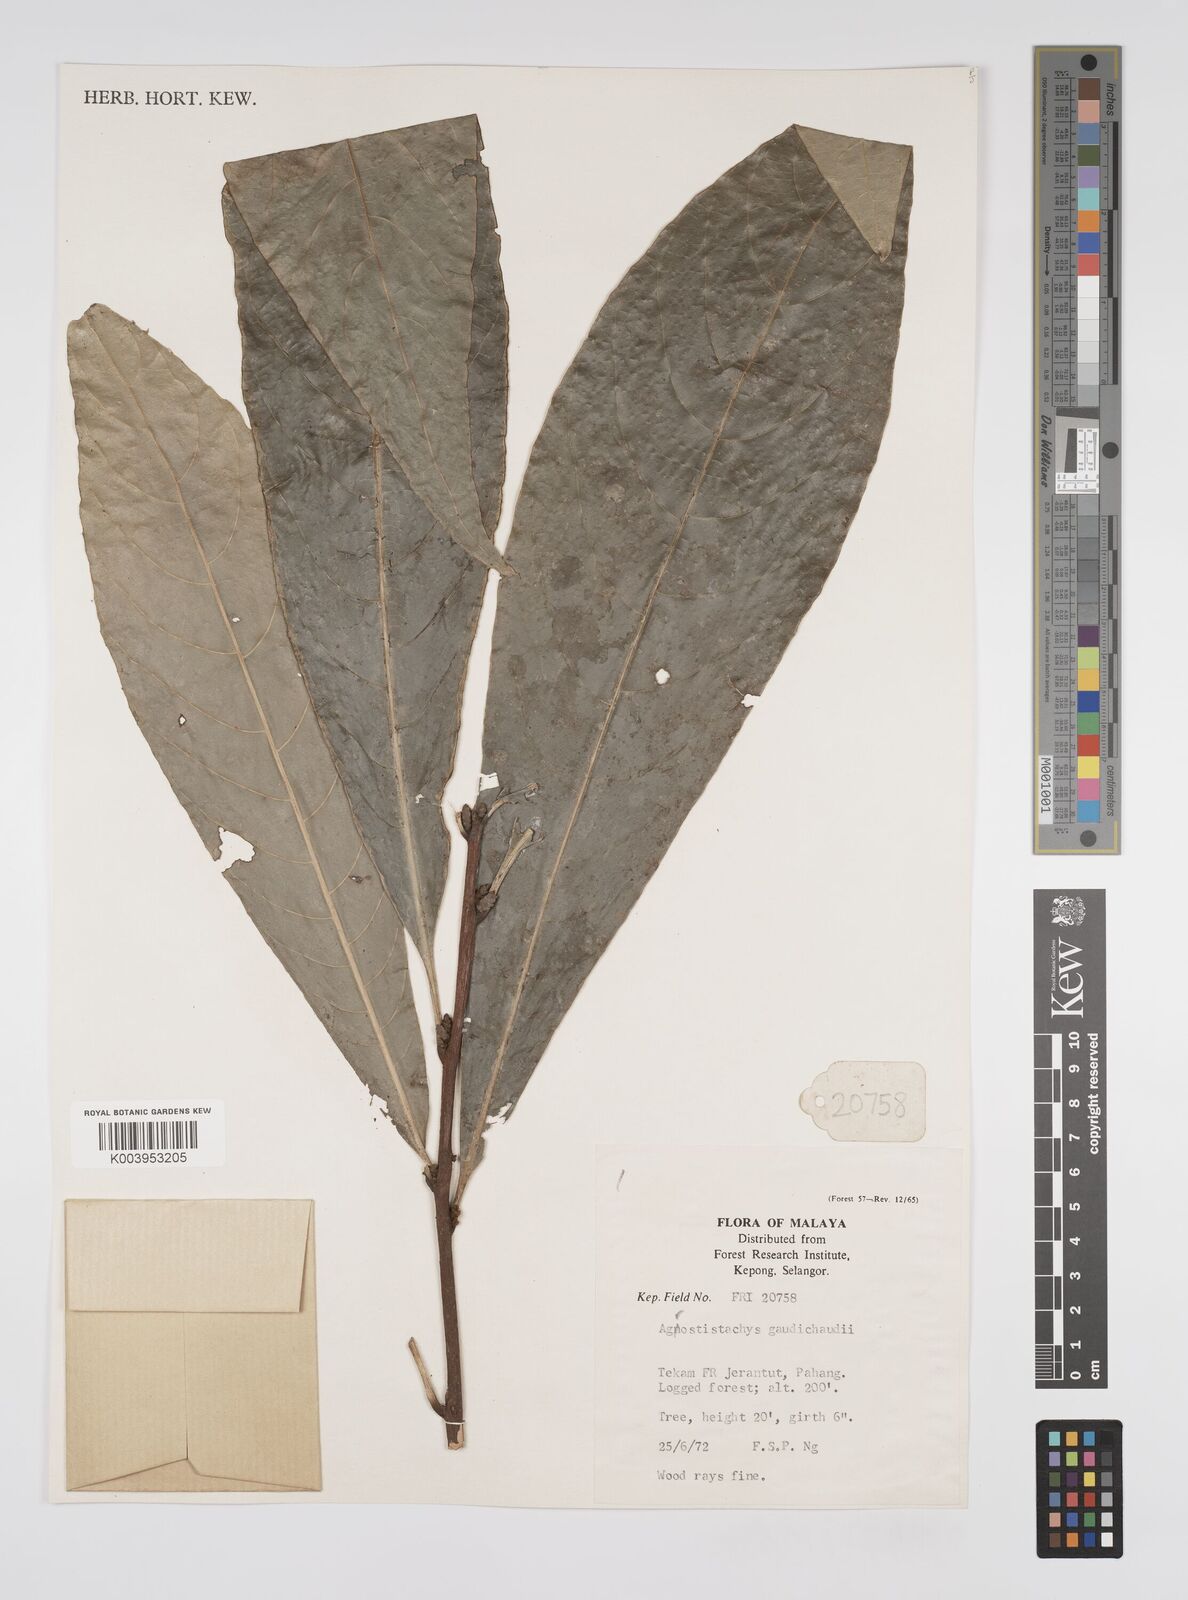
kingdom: Plantae
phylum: Tracheophyta
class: Magnoliopsida
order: Malpighiales
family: Euphorbiaceae
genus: Agrostistachys
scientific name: Agrostistachys gaudichaudii
